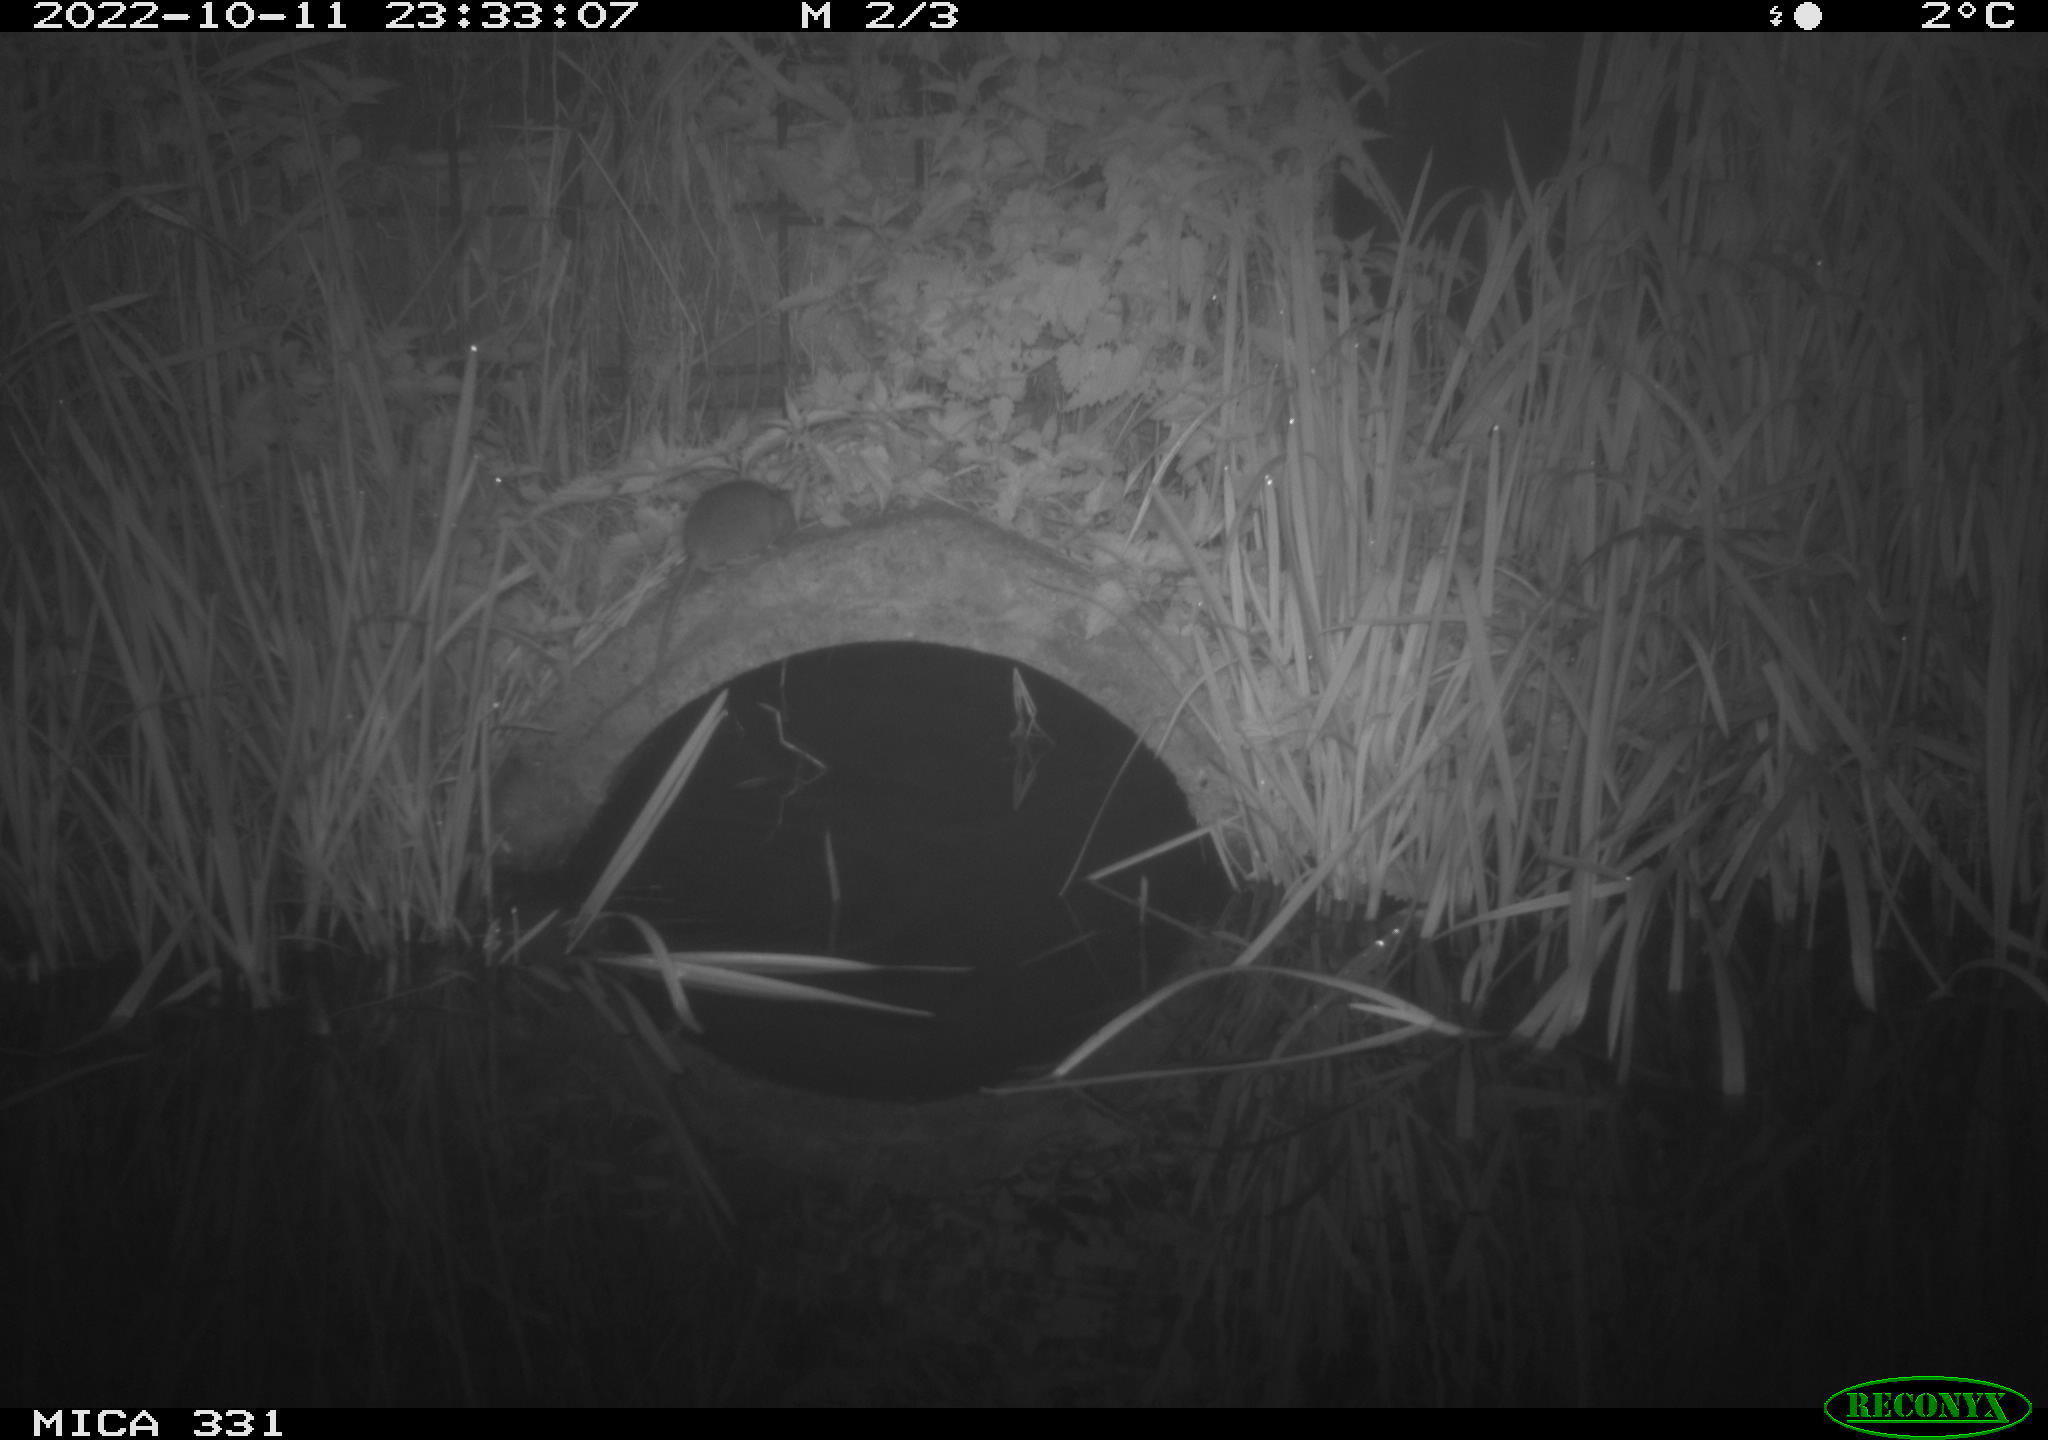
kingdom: Animalia
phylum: Chordata
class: Mammalia
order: Rodentia
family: Muridae
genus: Rattus
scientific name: Rattus norvegicus
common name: Brown rat
